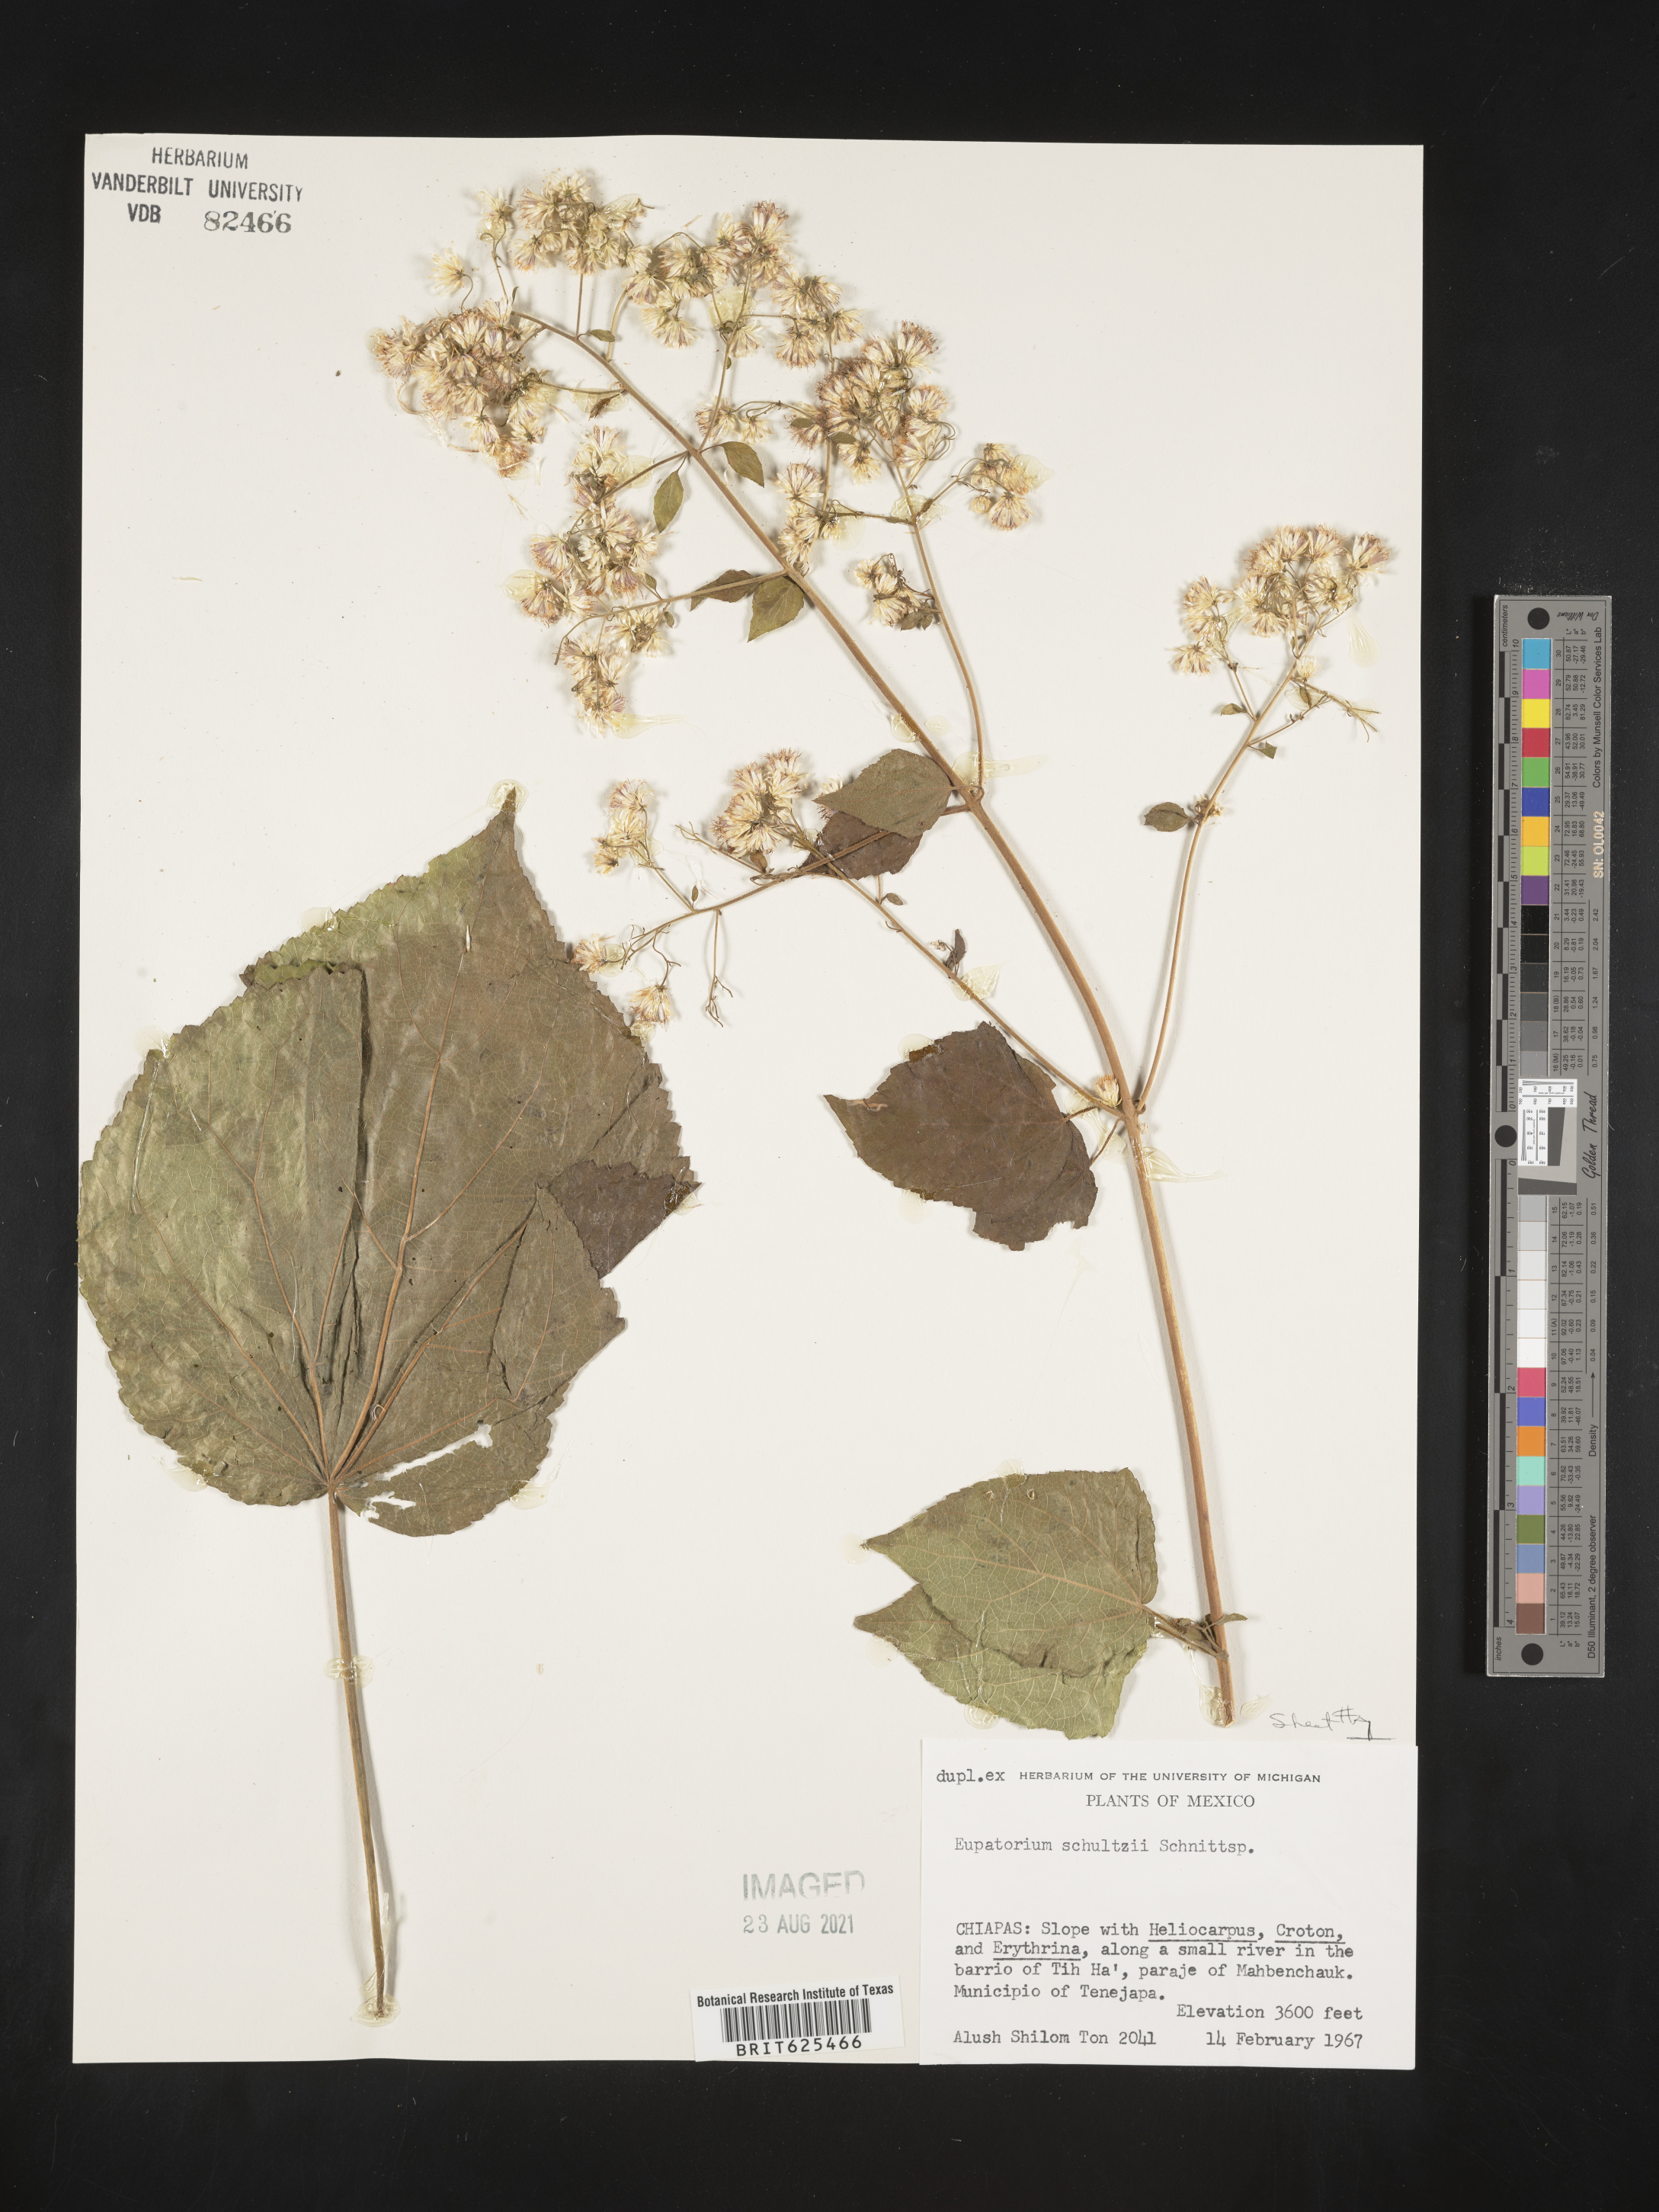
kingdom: Plantae
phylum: Tracheophyta
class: Magnoliopsida
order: Asterales
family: Asteraceae
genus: Eupatorium
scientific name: Eupatorium
